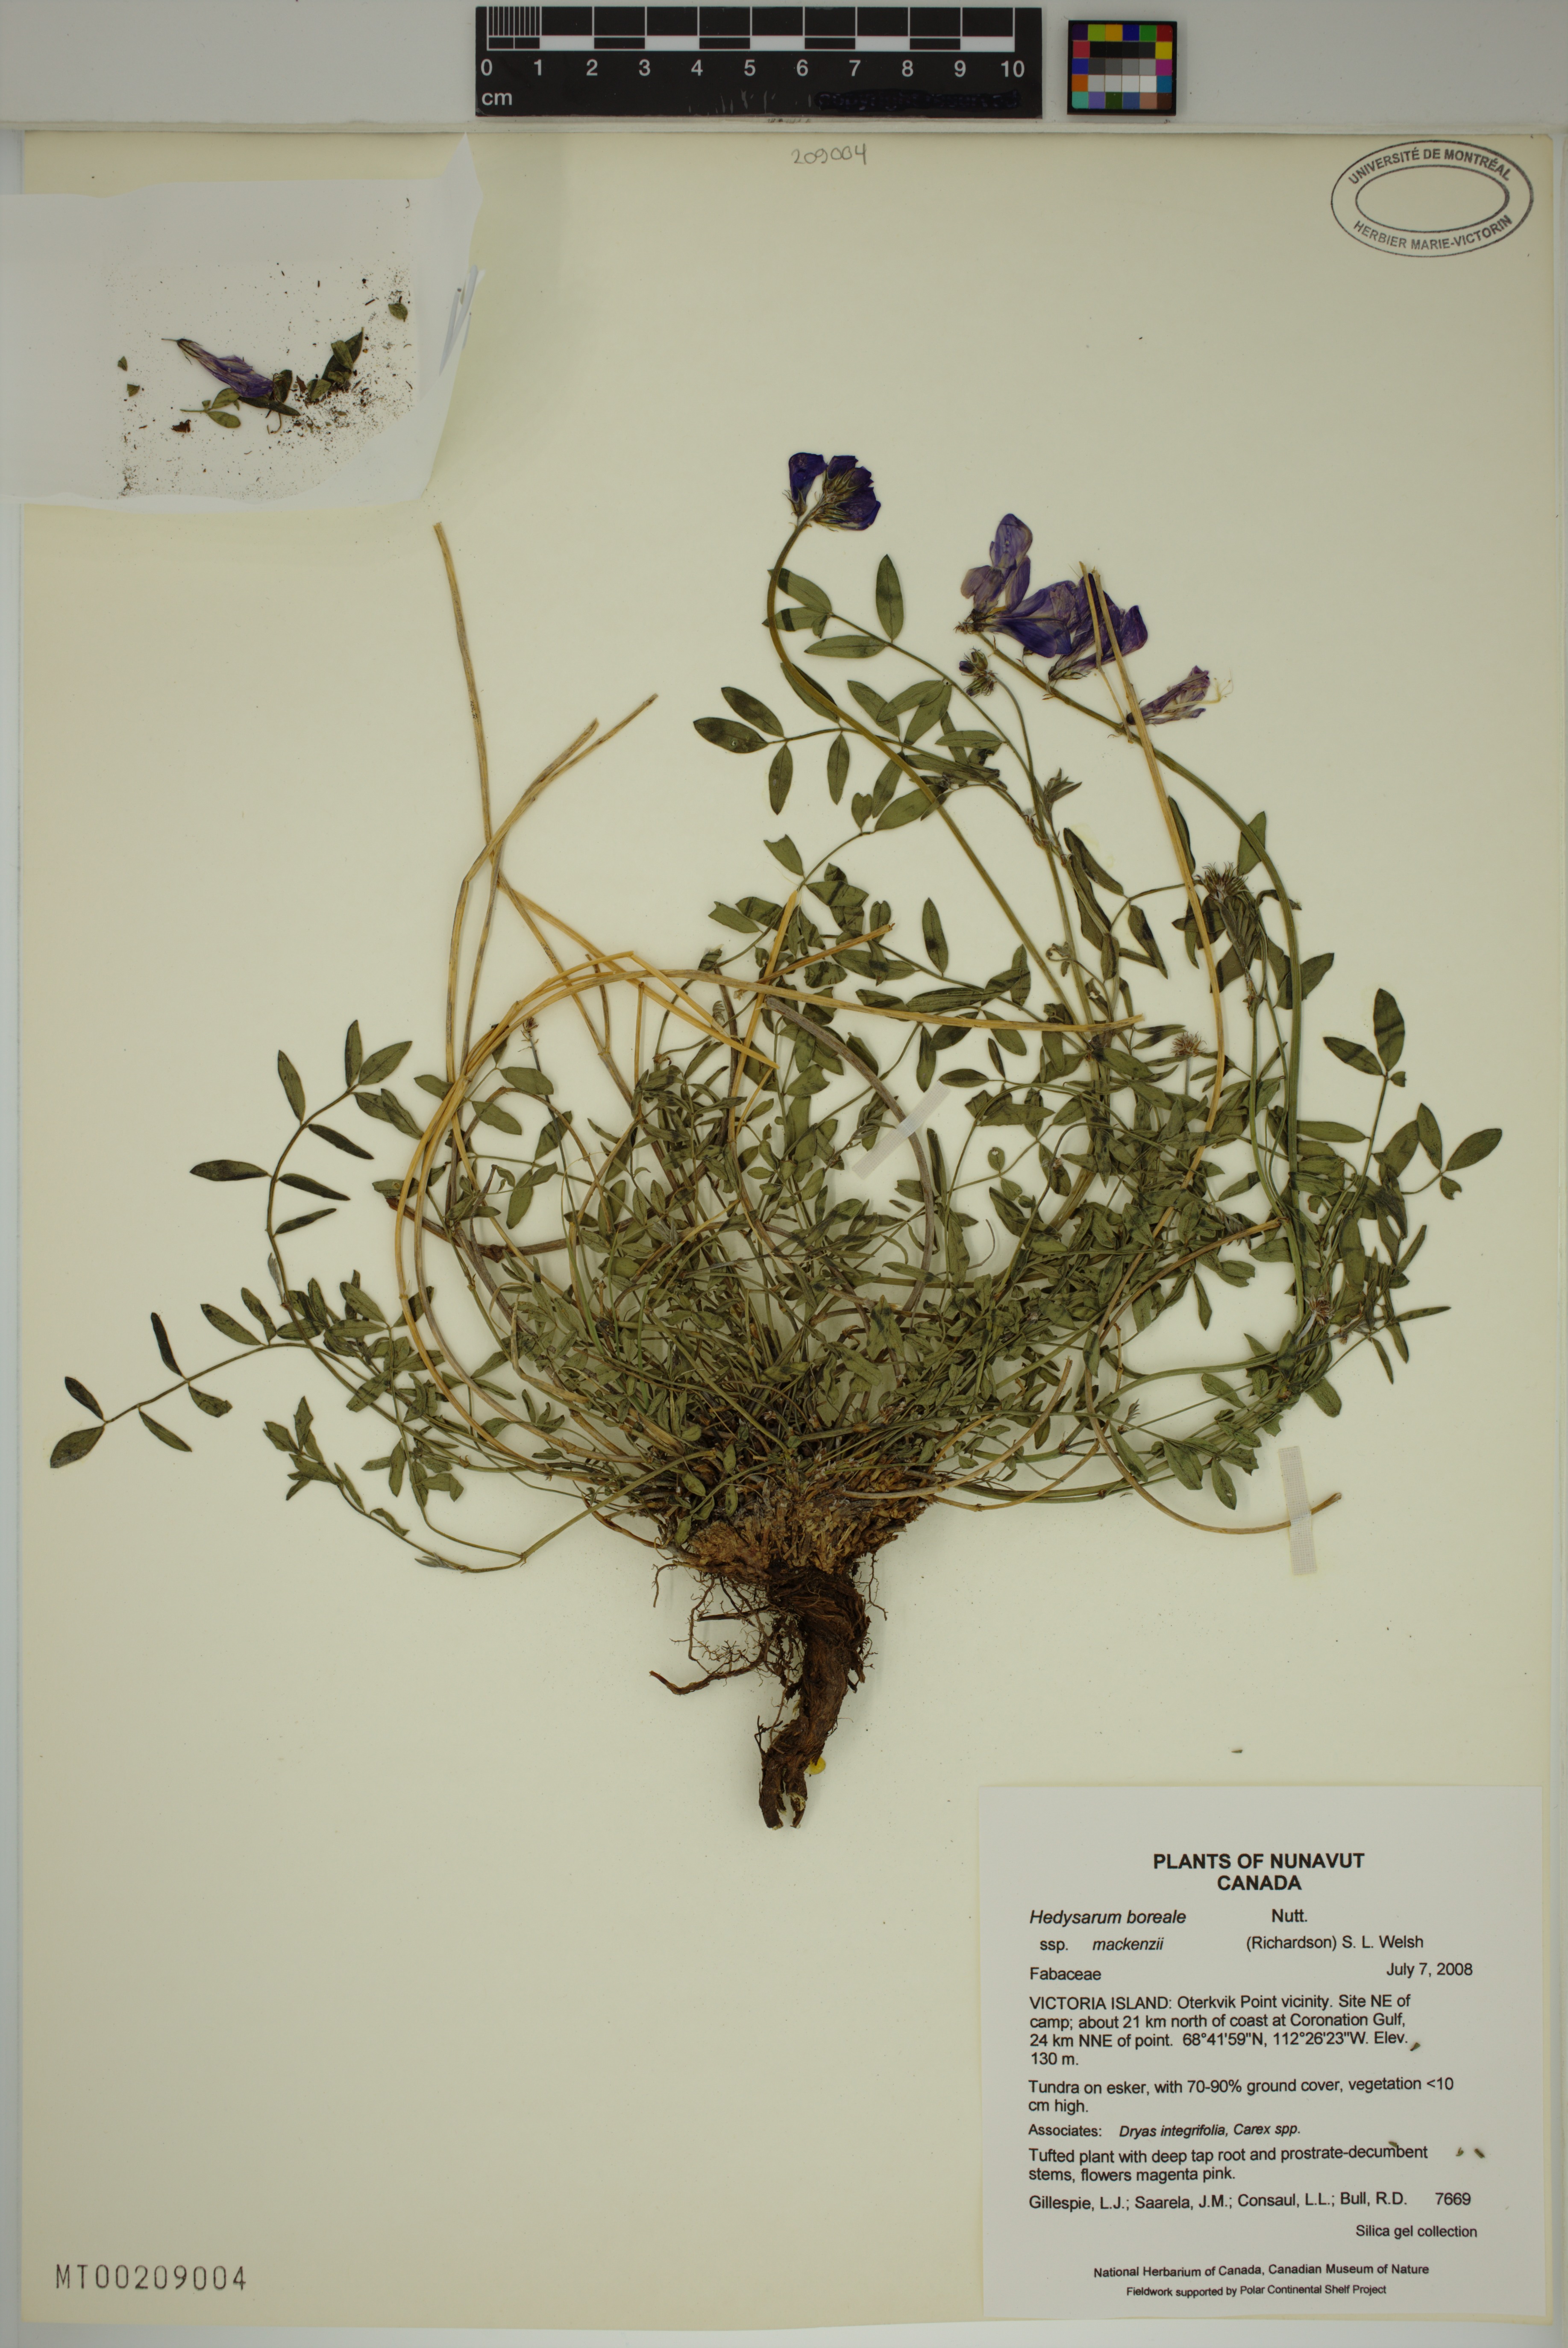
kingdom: Plantae
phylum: Tracheophyta
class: Magnoliopsida
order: Fabales
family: Fabaceae
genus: Hedysarum
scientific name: Hedysarum boreale
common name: Northern sweet-vetch
